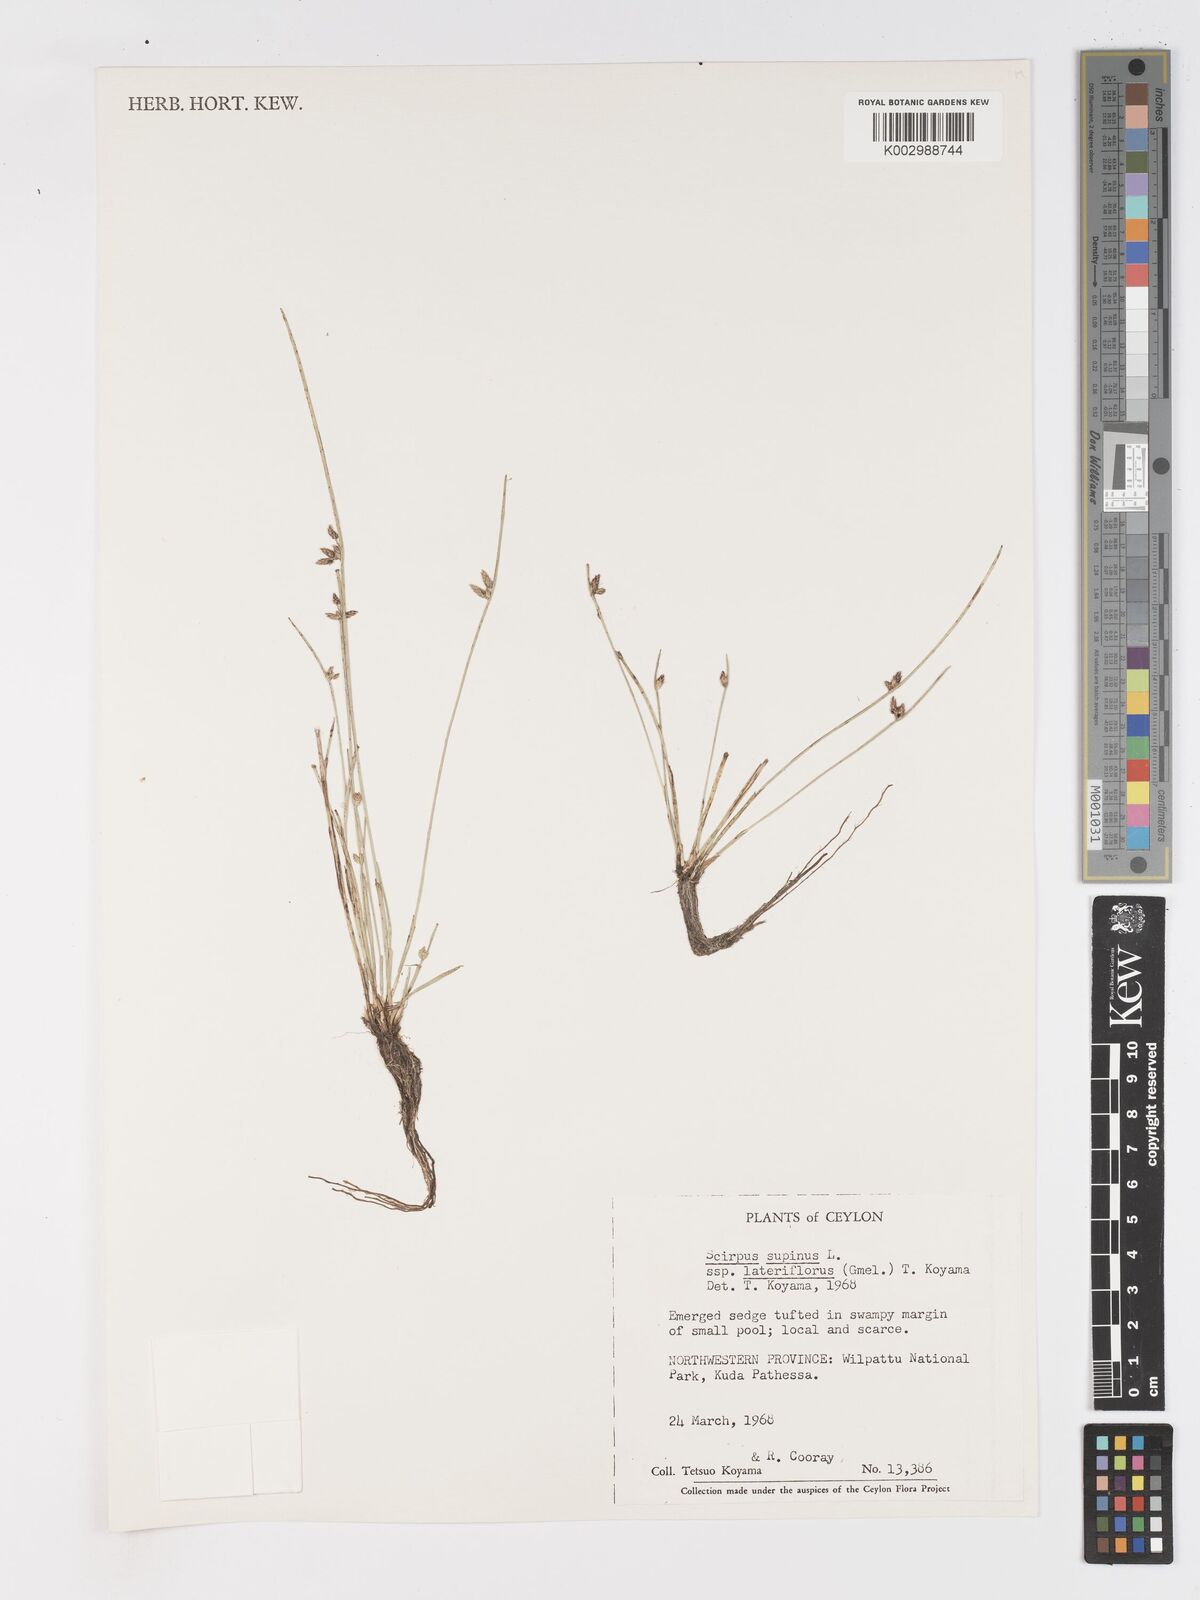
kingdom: Plantae
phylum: Tracheophyta
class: Liliopsida
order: Poales
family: Cyperaceae
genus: Schoenoplectiella
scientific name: Schoenoplectiella lateriflora
